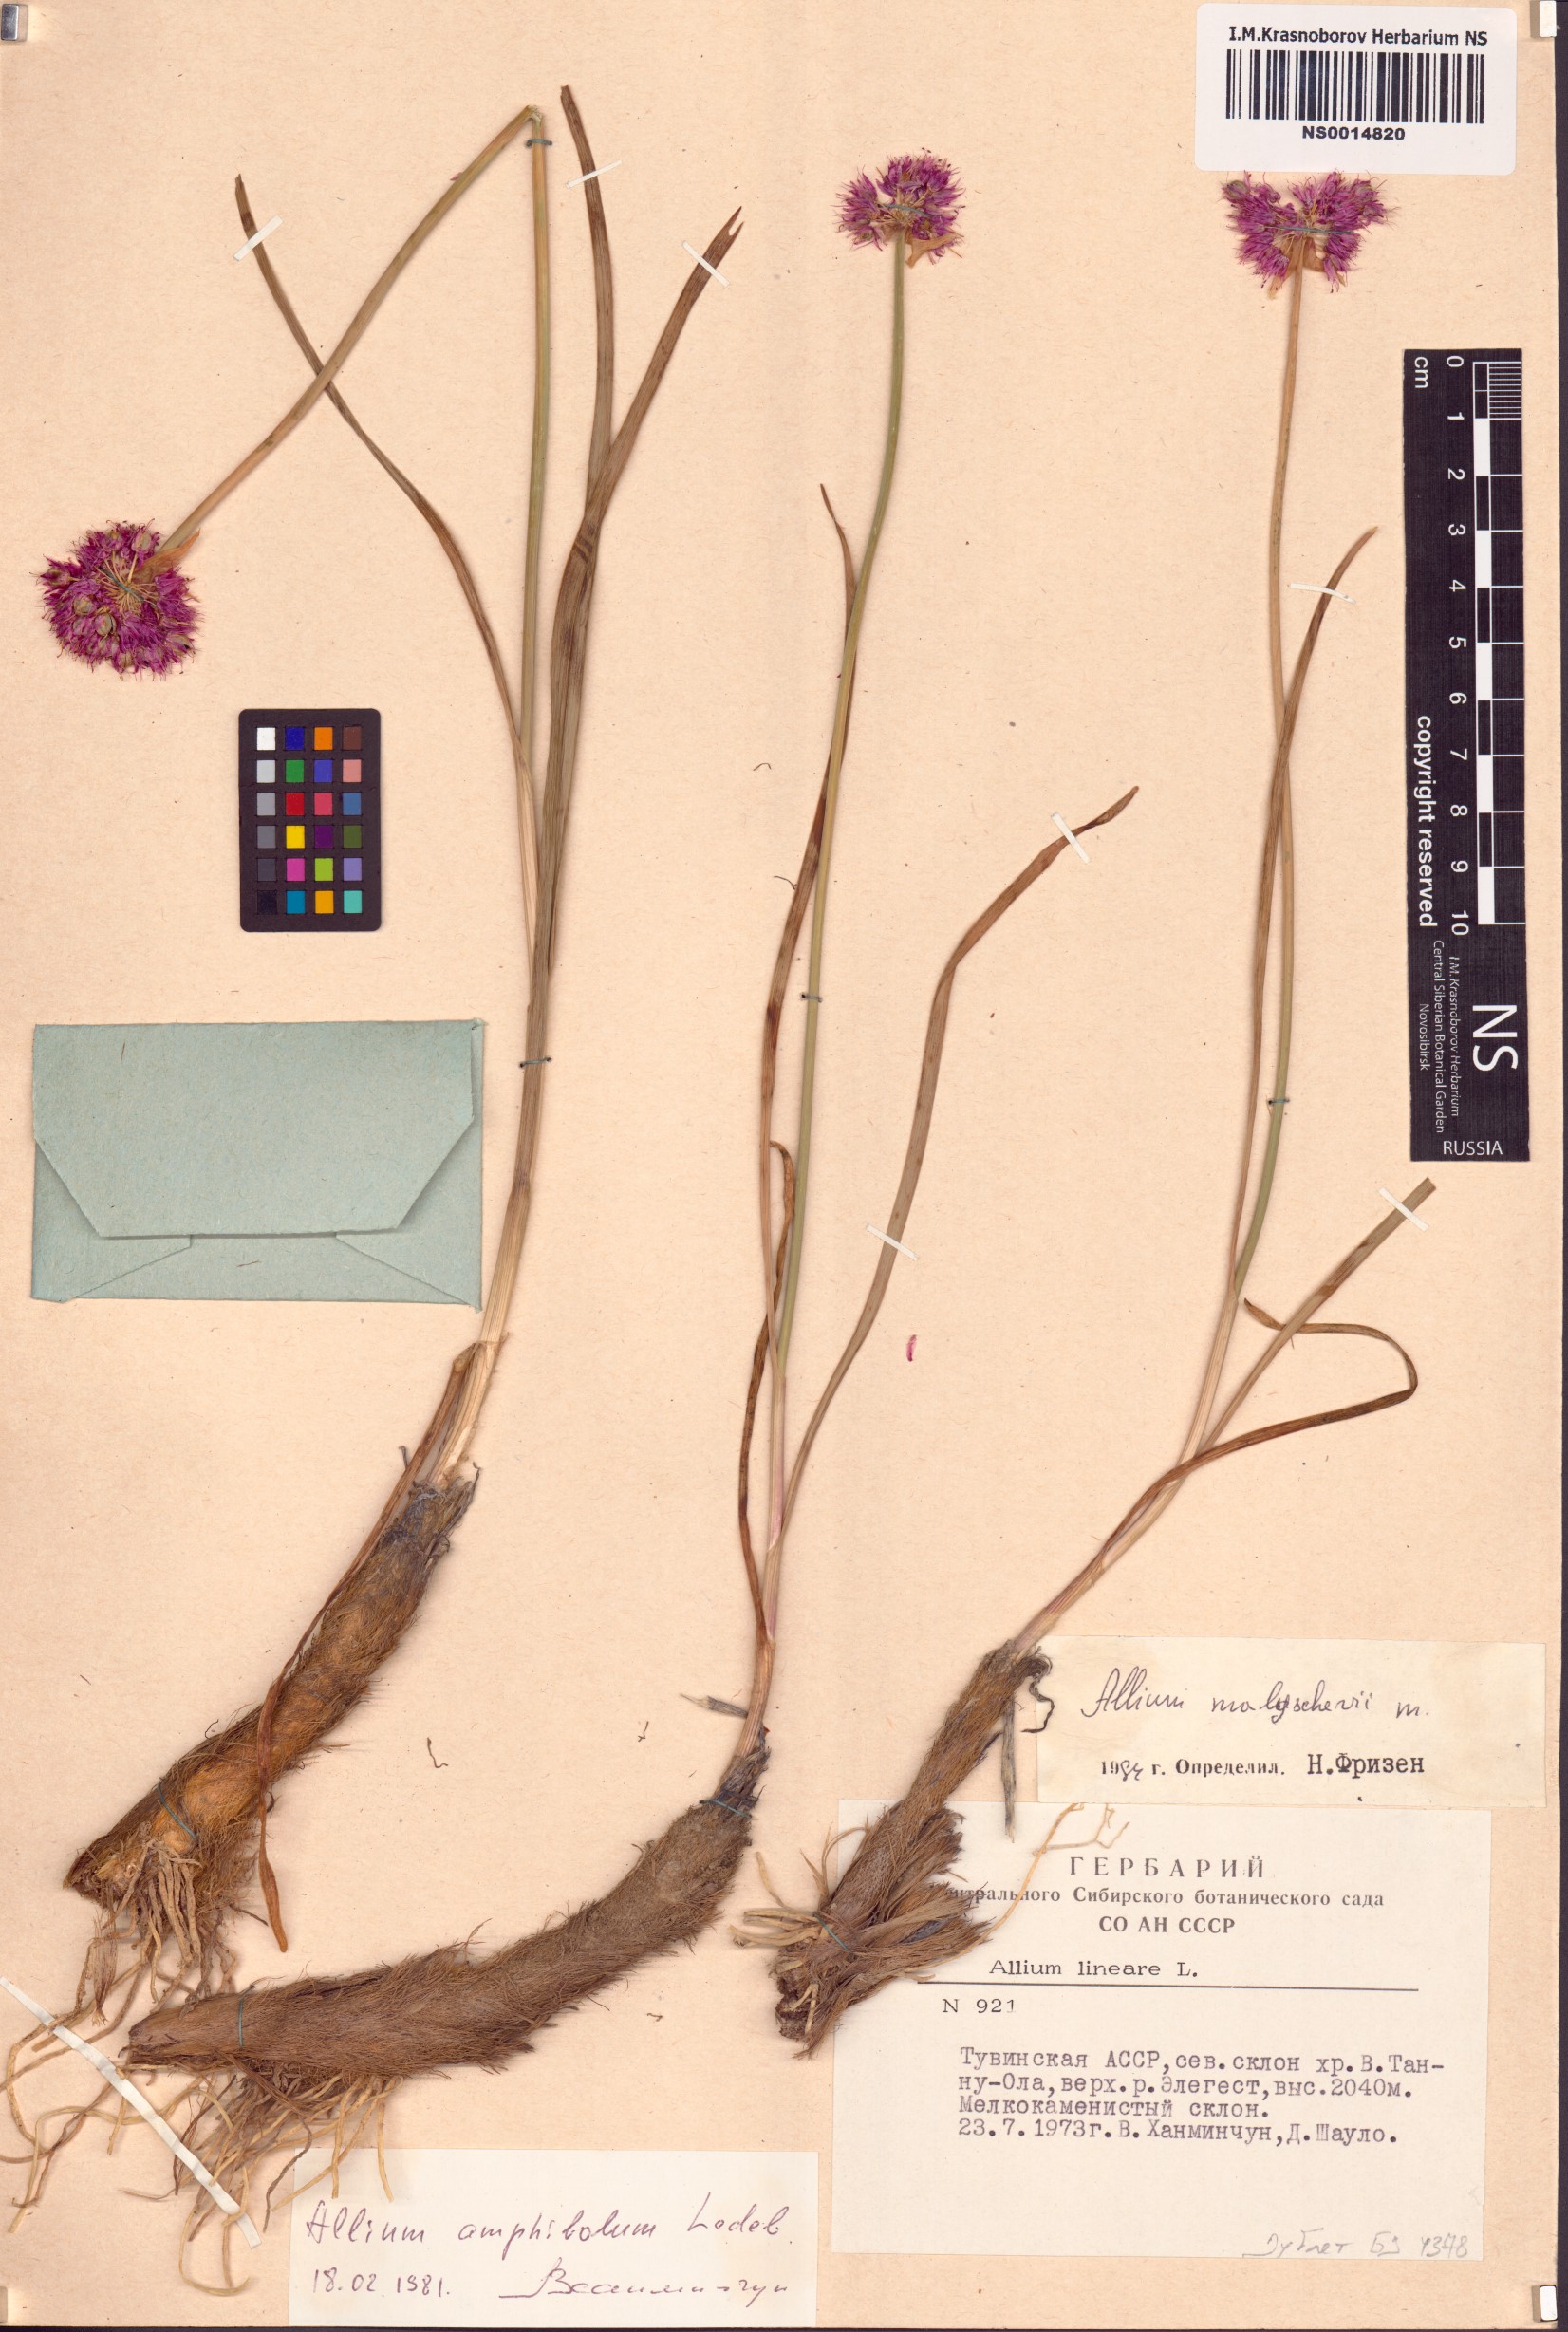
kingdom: Plantae
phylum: Tracheophyta
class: Liliopsida
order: Asparagales
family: Amaryllidaceae
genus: Allium
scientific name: Allium malyschevii
